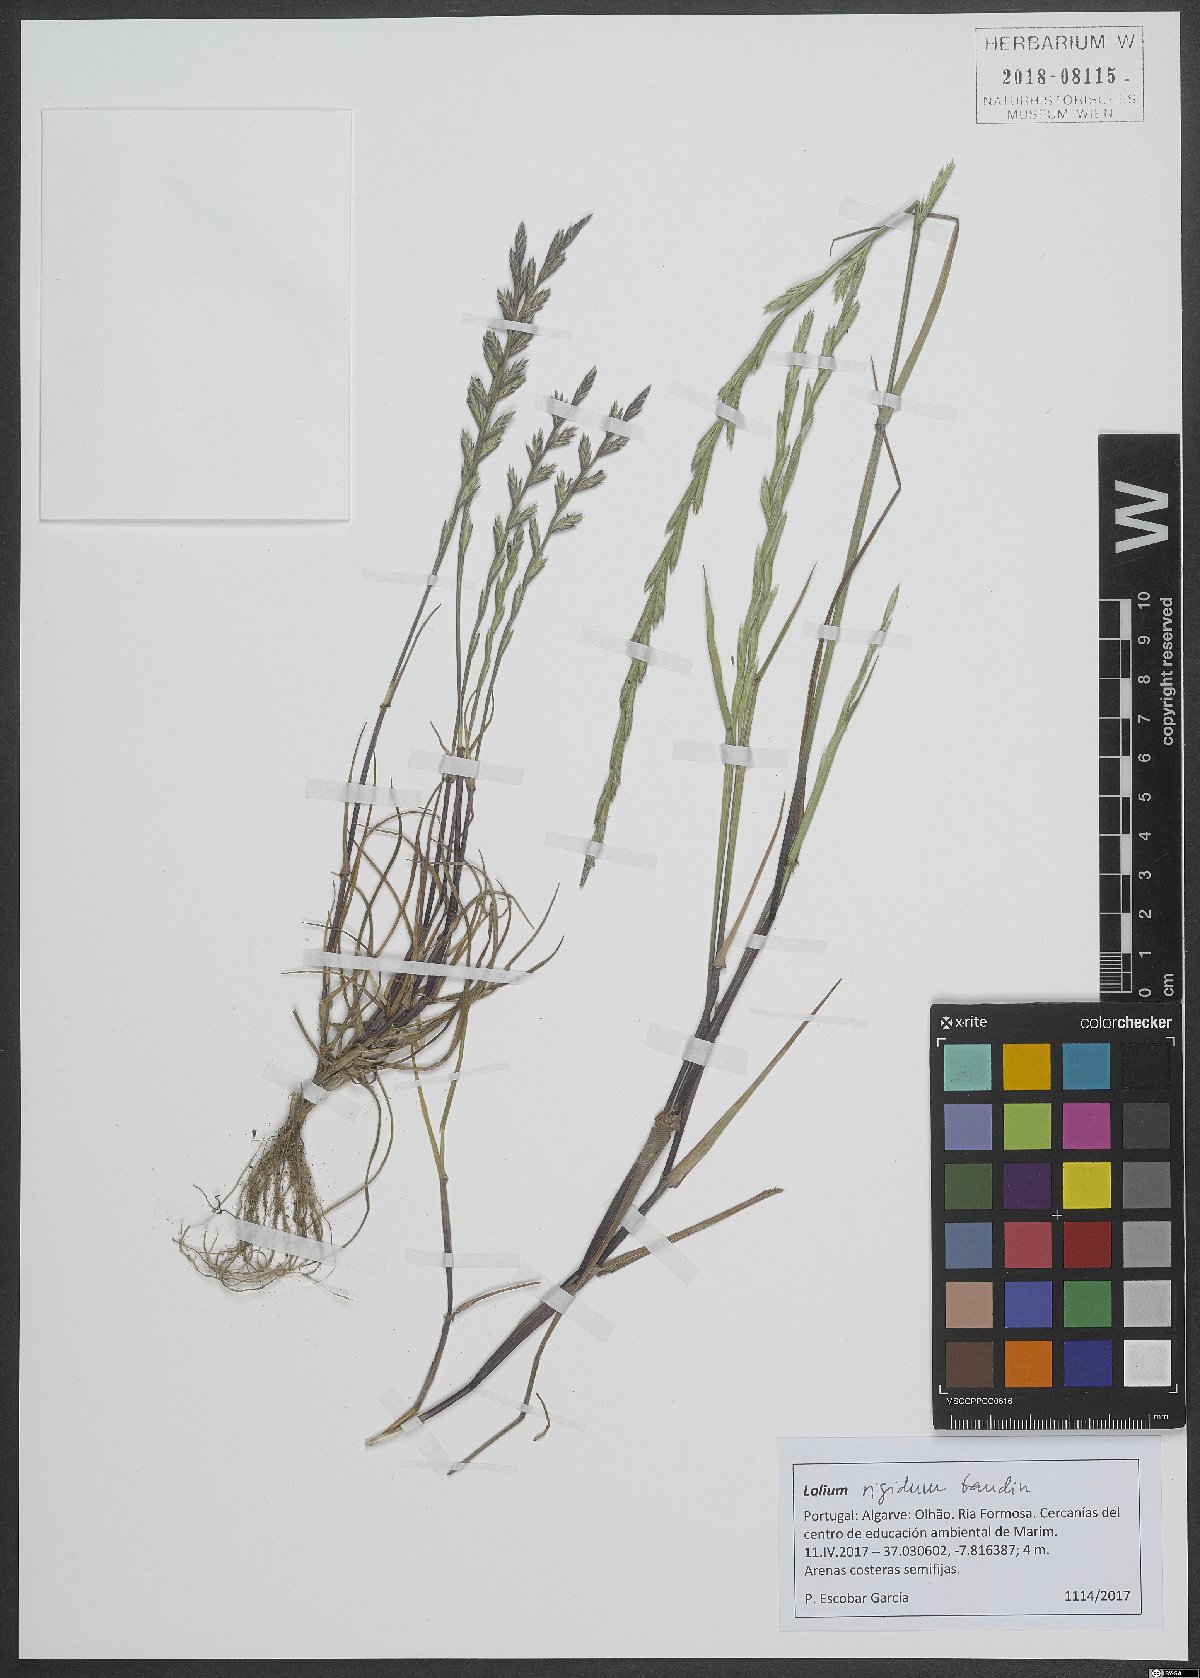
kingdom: Plantae
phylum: Tracheophyta
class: Liliopsida
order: Poales
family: Poaceae
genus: Lolium
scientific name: Lolium rigidum
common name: Wimmera ryegrass
